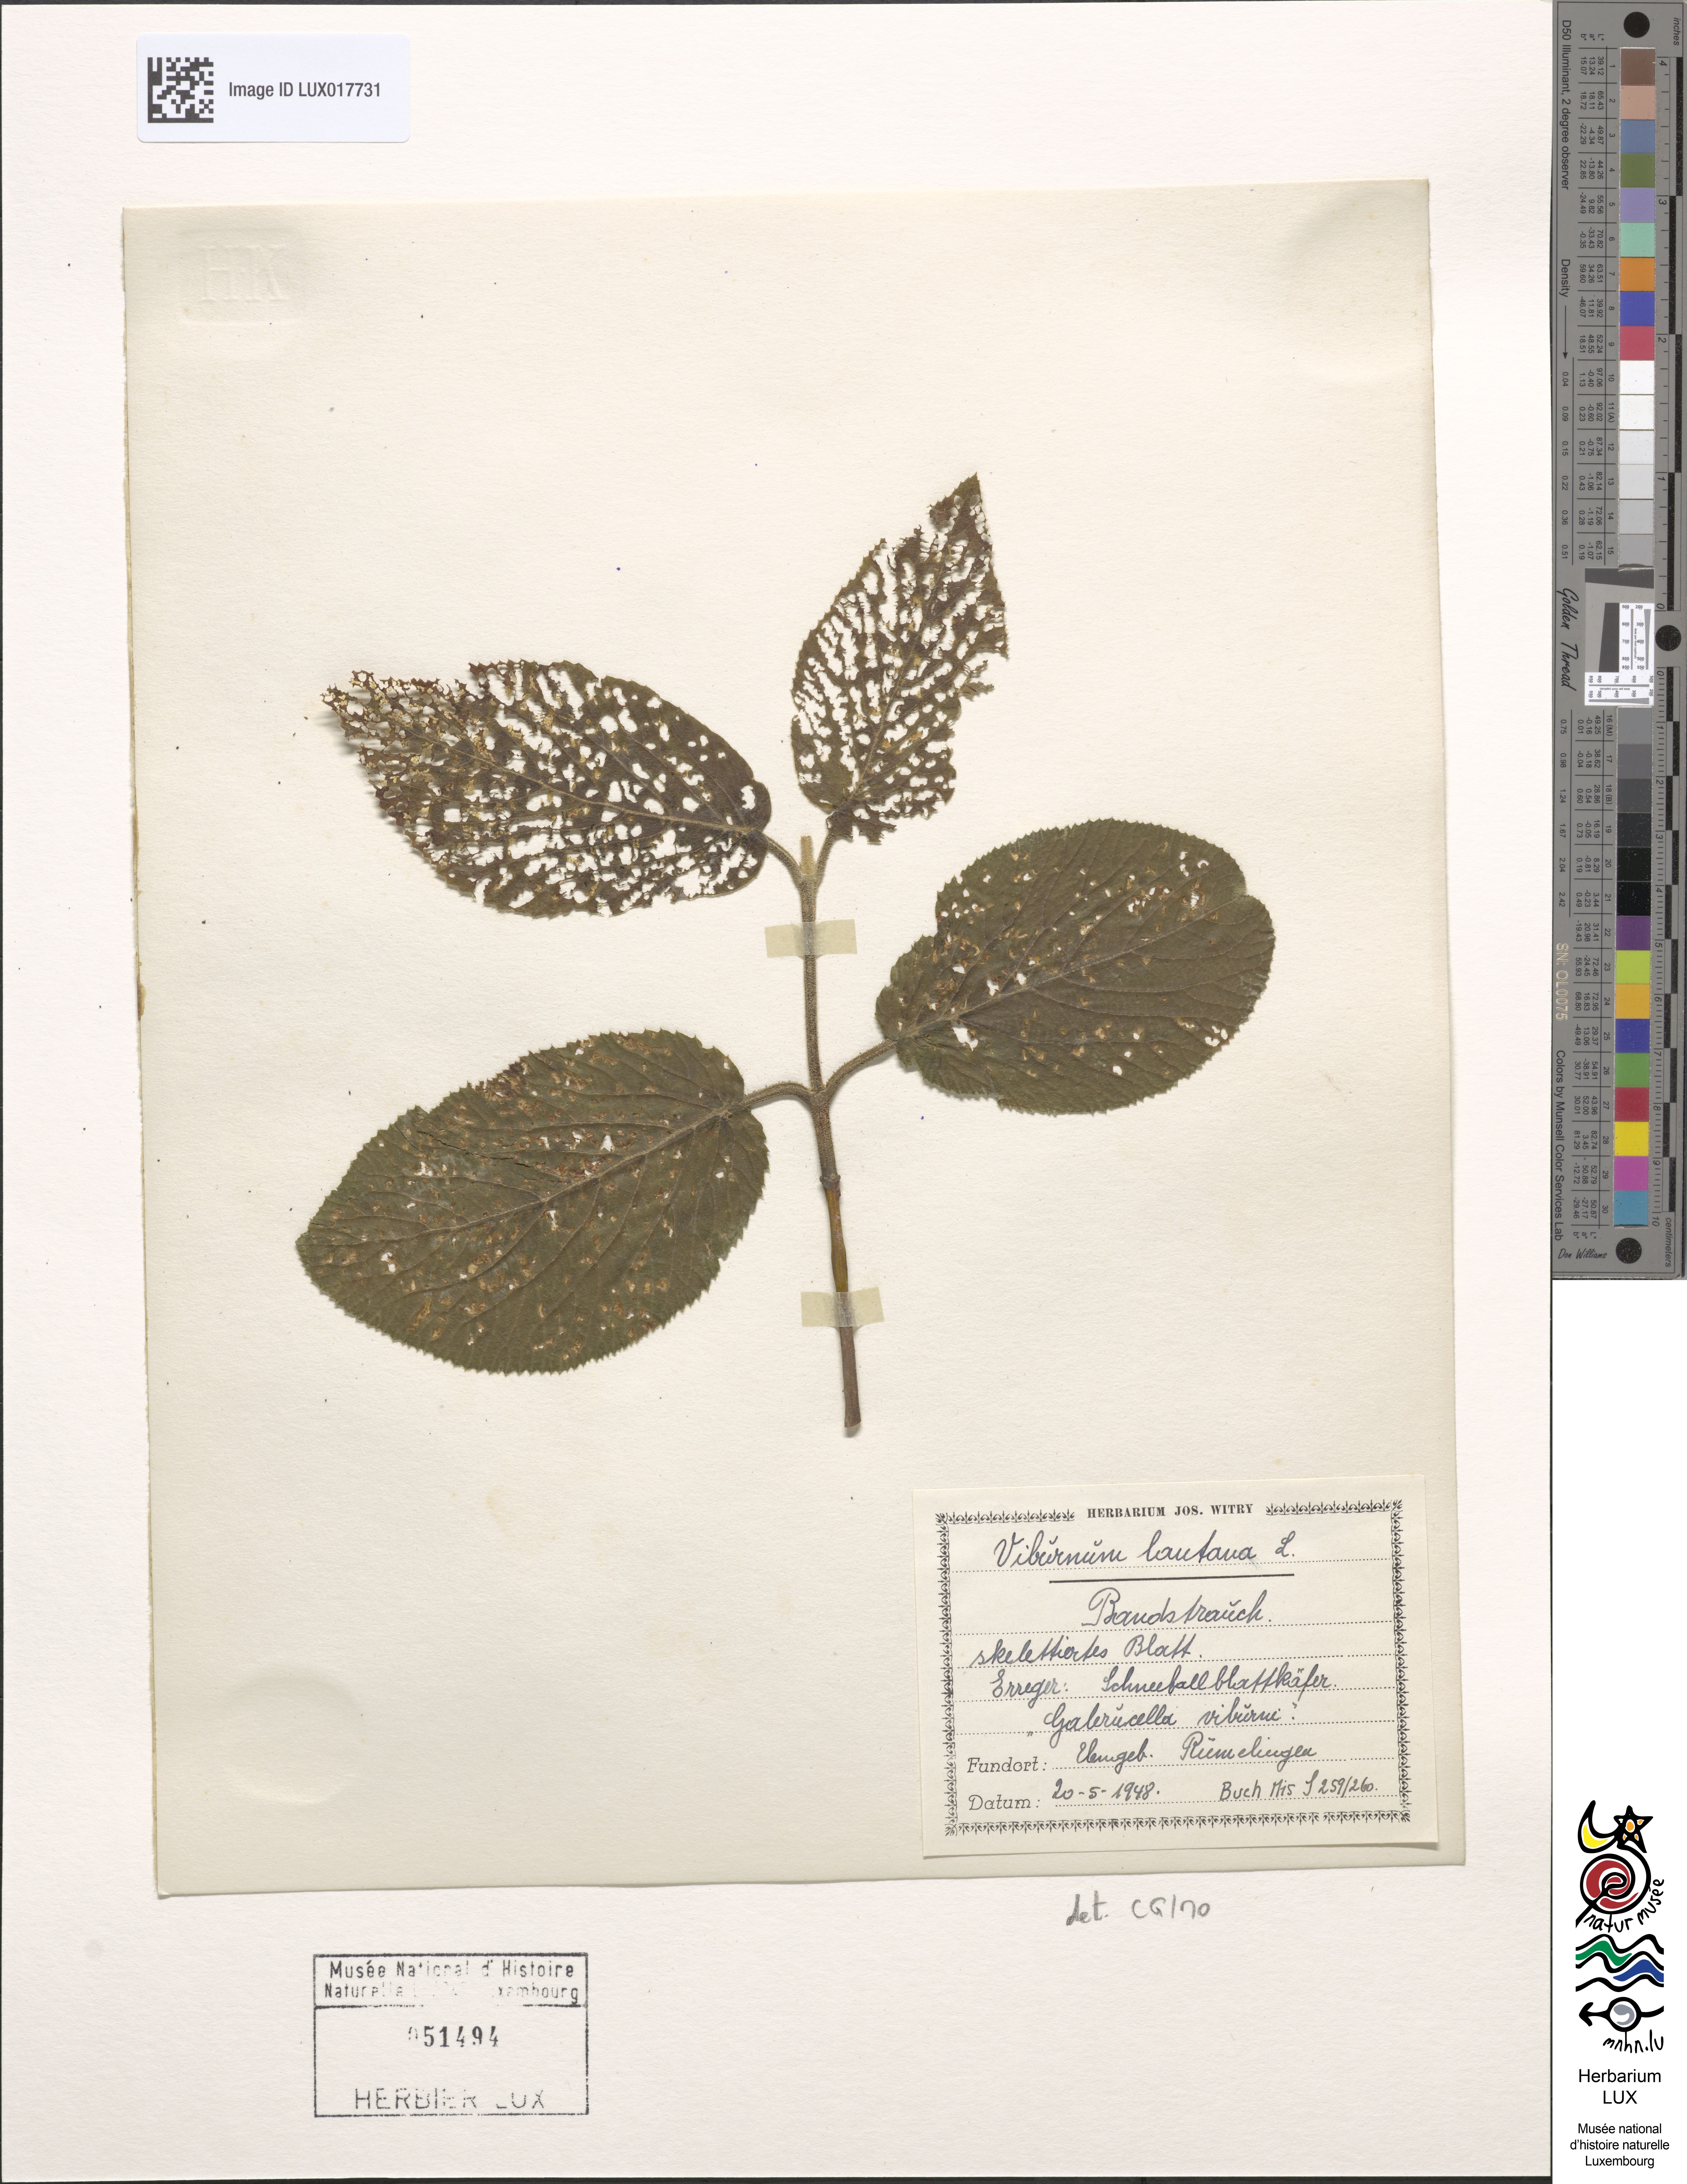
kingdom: Plantae
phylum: Tracheophyta
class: Magnoliopsida
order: Dipsacales
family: Viburnaceae
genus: Viburnum
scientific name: Viburnum lantana
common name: Wayfaring tree
